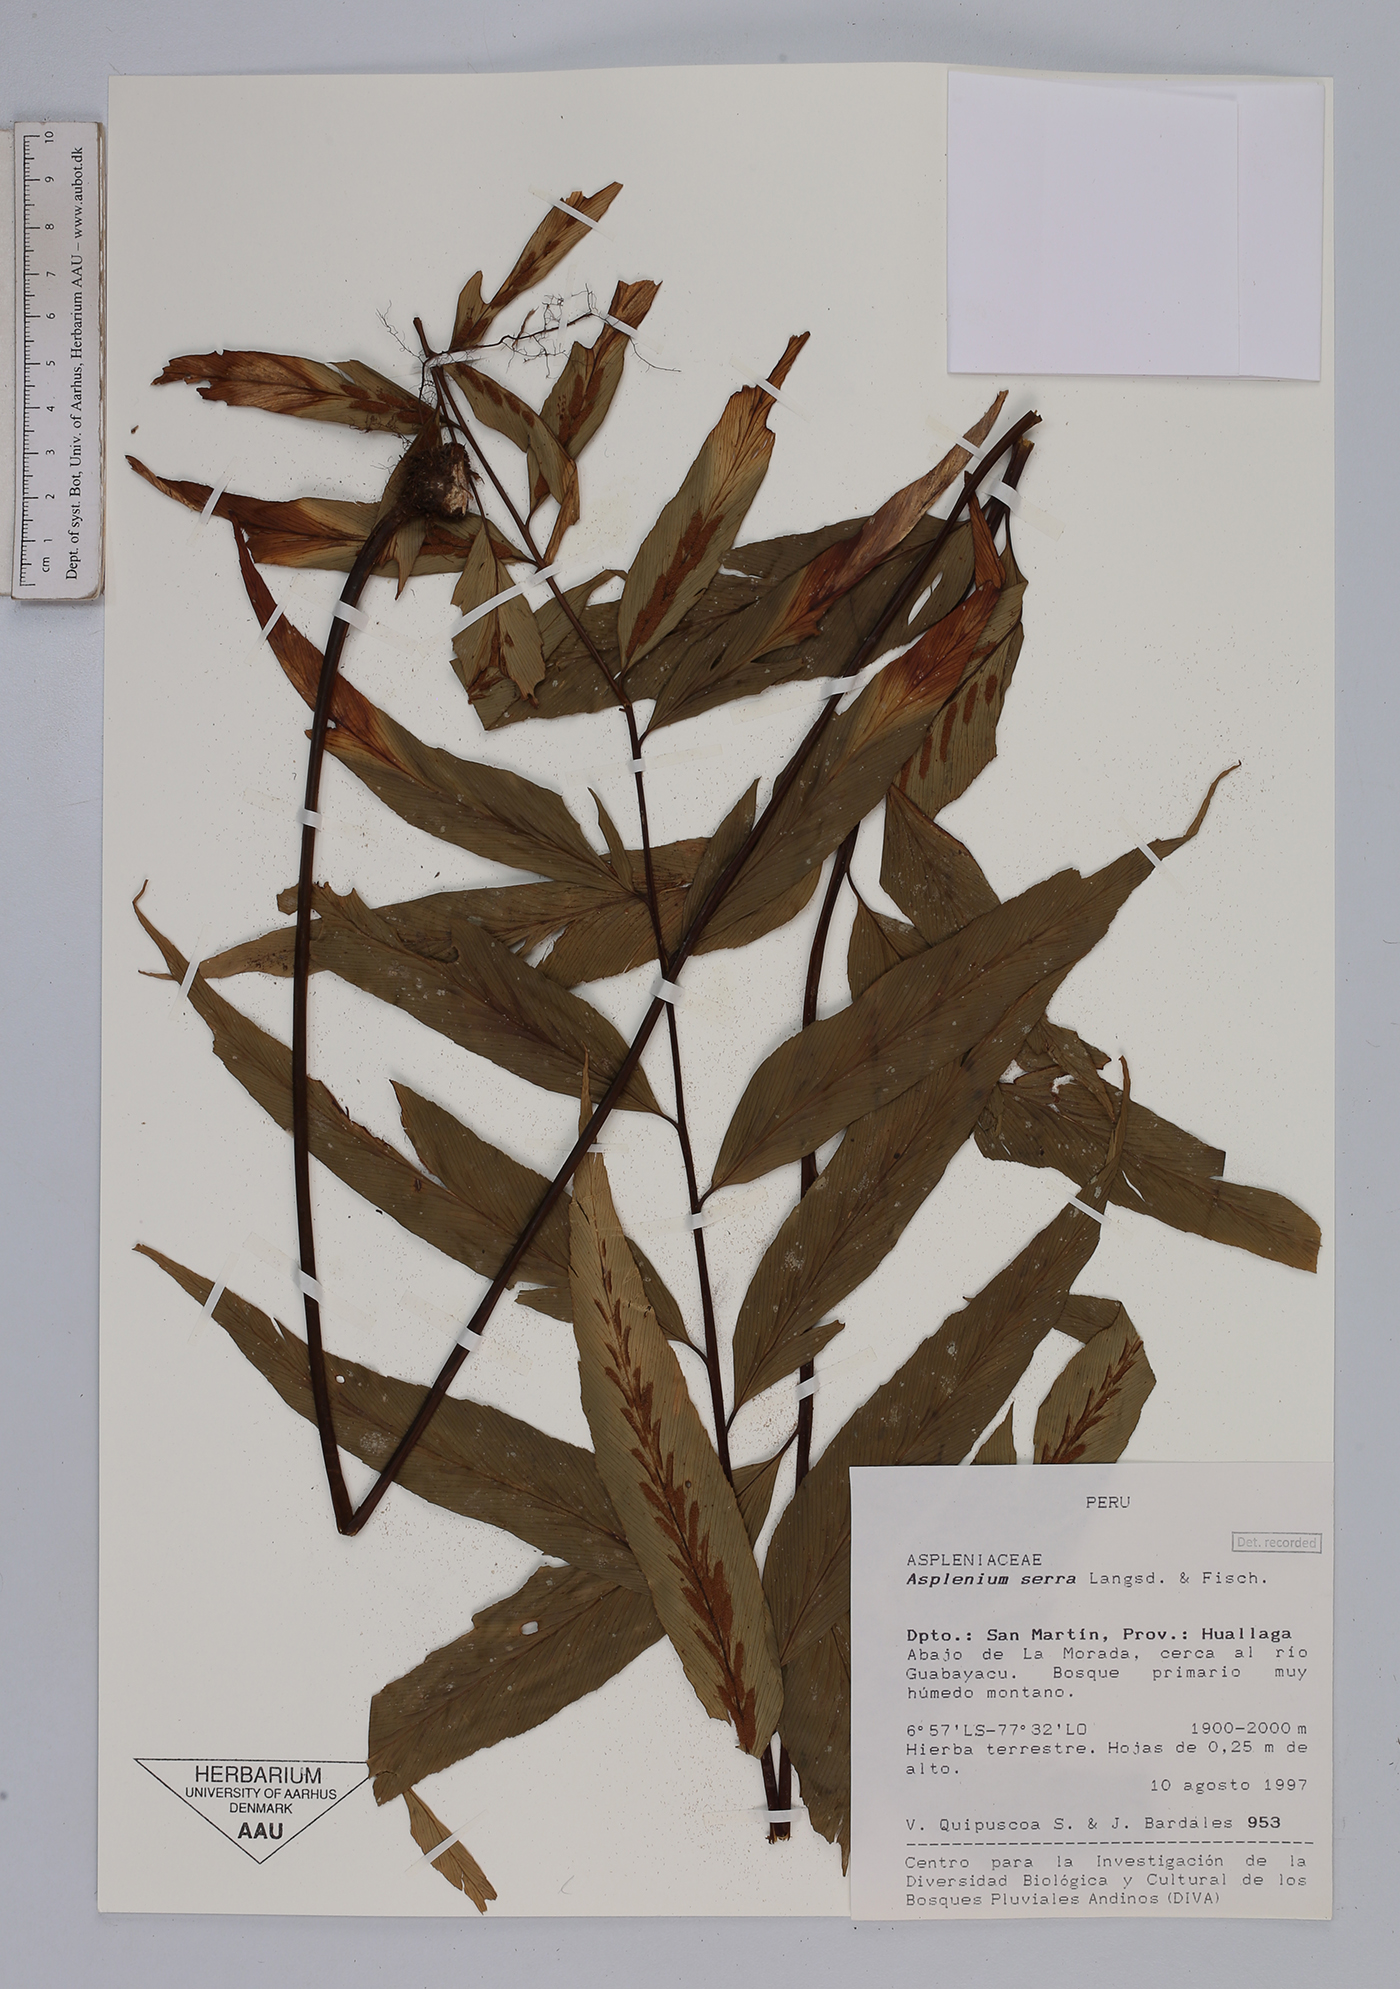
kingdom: Plantae
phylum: Tracheophyta
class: Polypodiopsida
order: Polypodiales
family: Aspleniaceae
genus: Asplenium
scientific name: Asplenium serra
